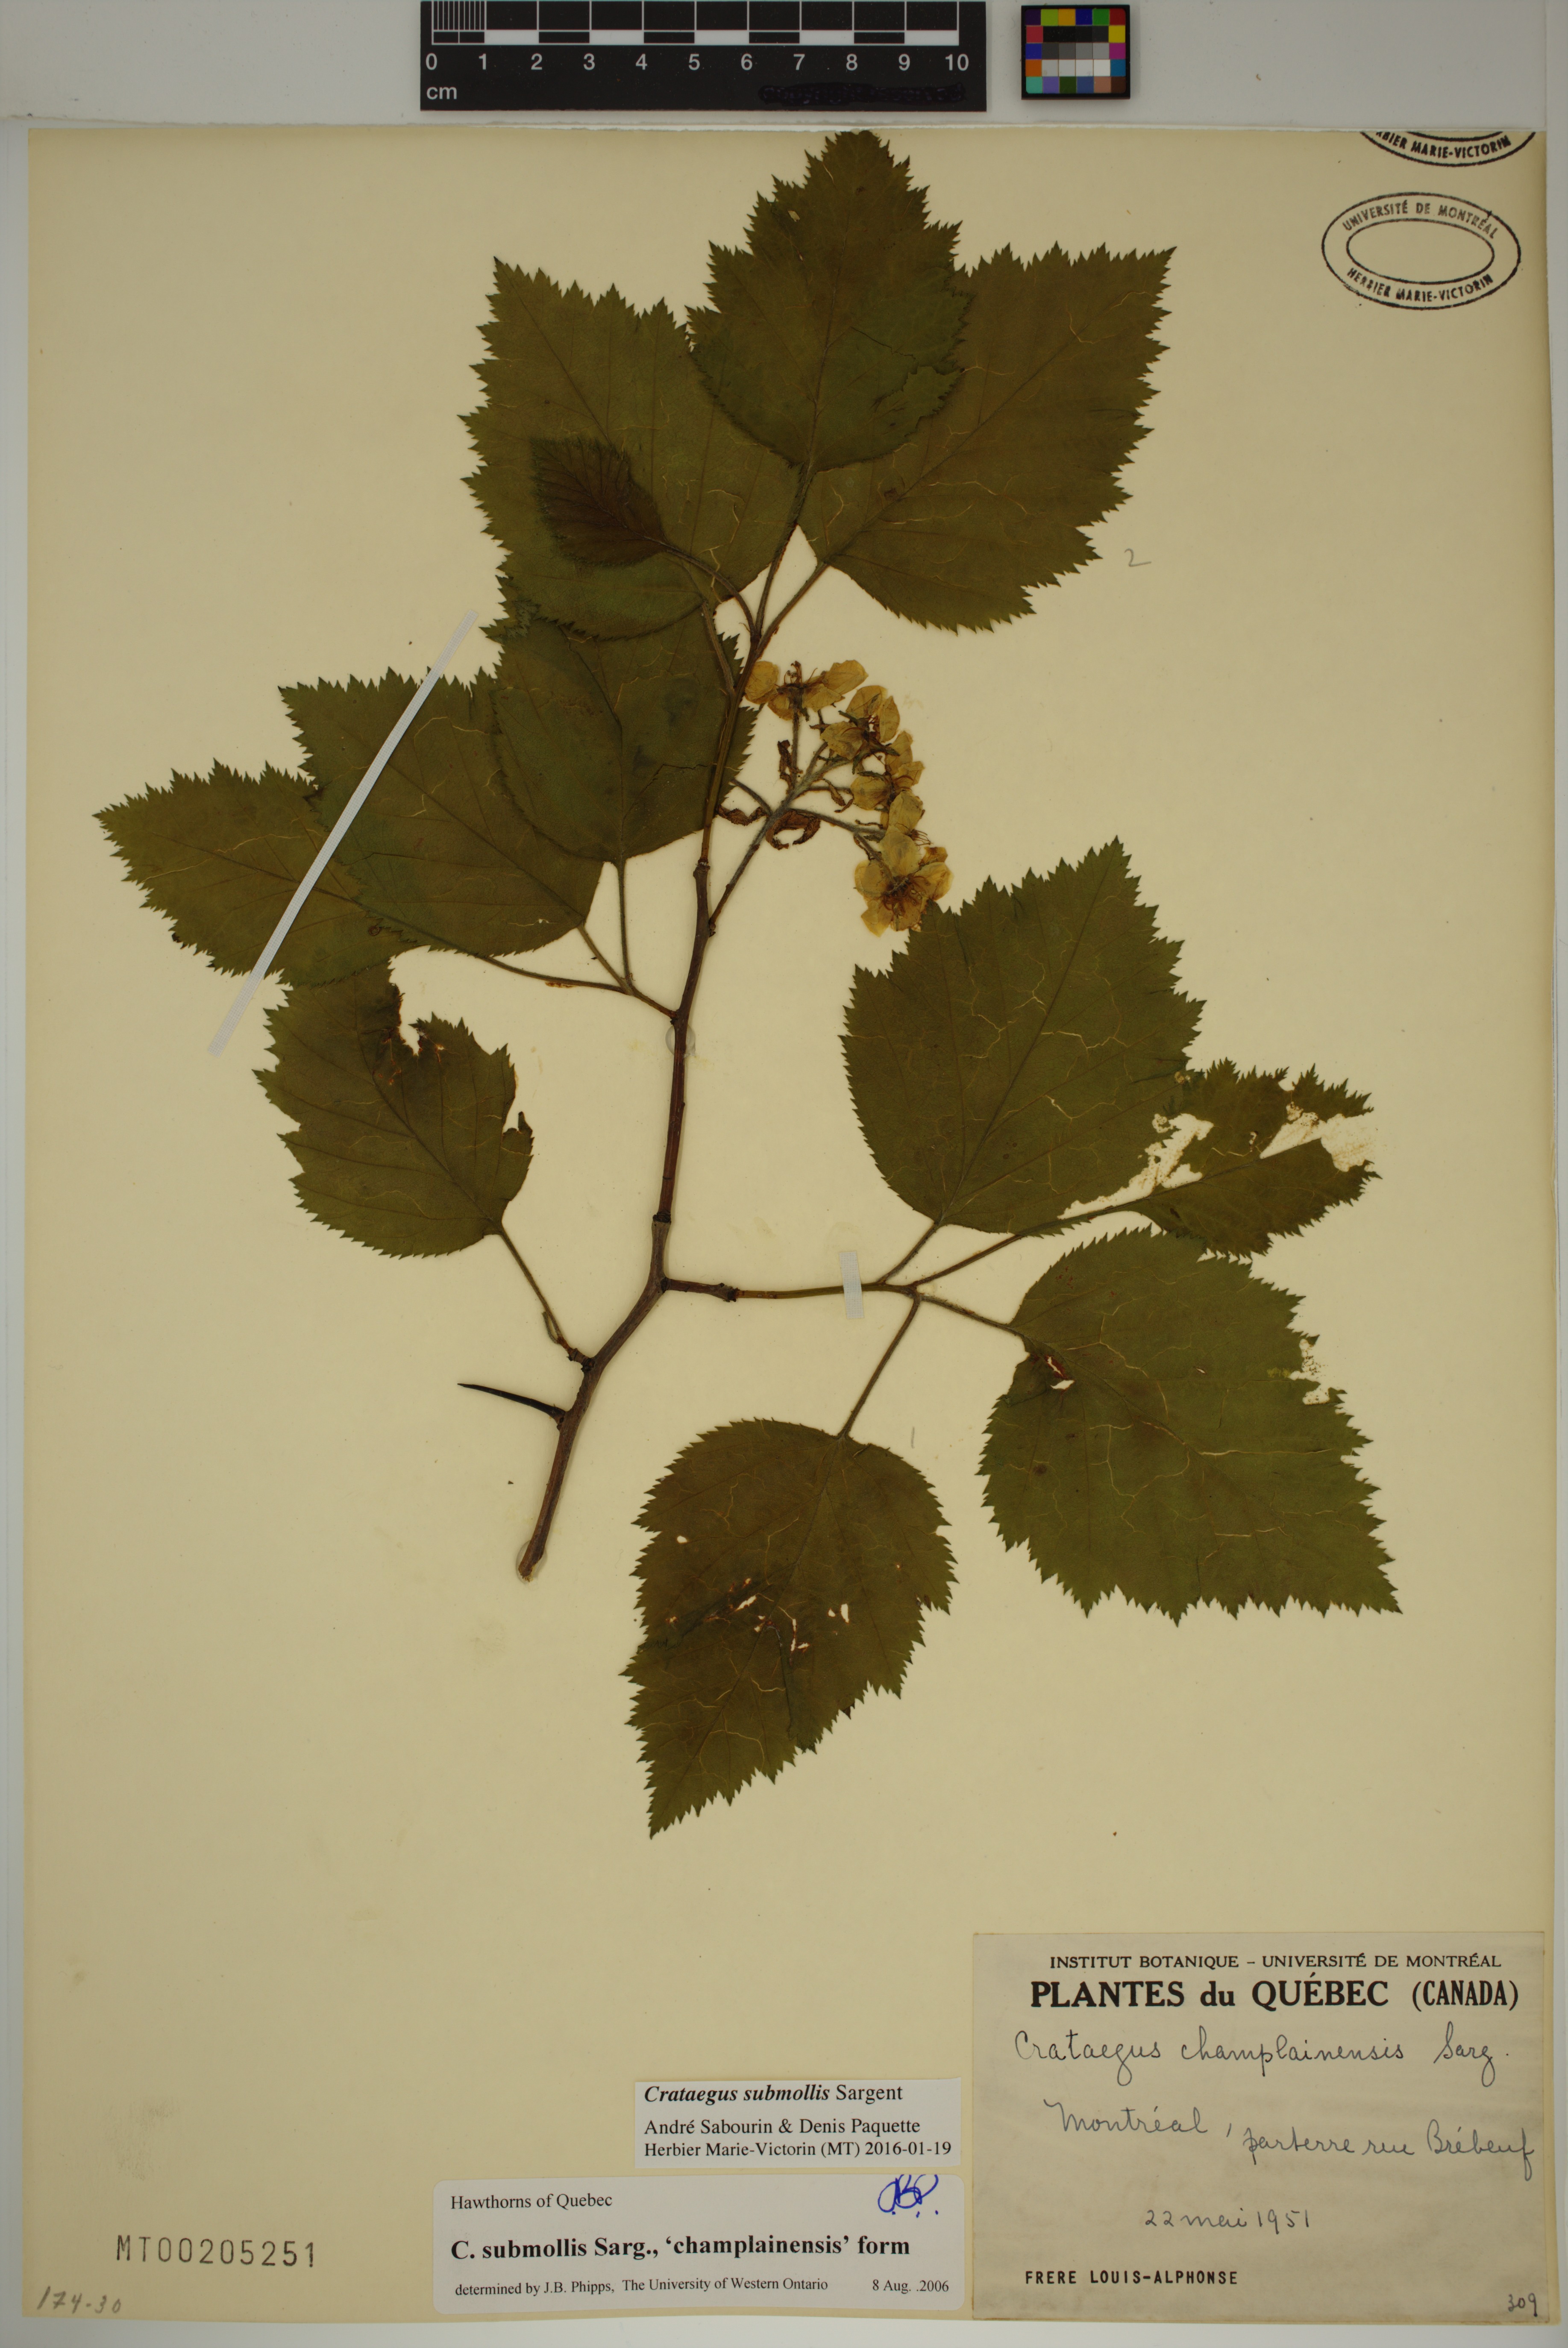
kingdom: Plantae
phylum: Tracheophyta
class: Magnoliopsida
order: Rosales
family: Rosaceae
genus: Crataegus
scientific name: Crataegus submollis
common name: Hairy cockspurthorn
